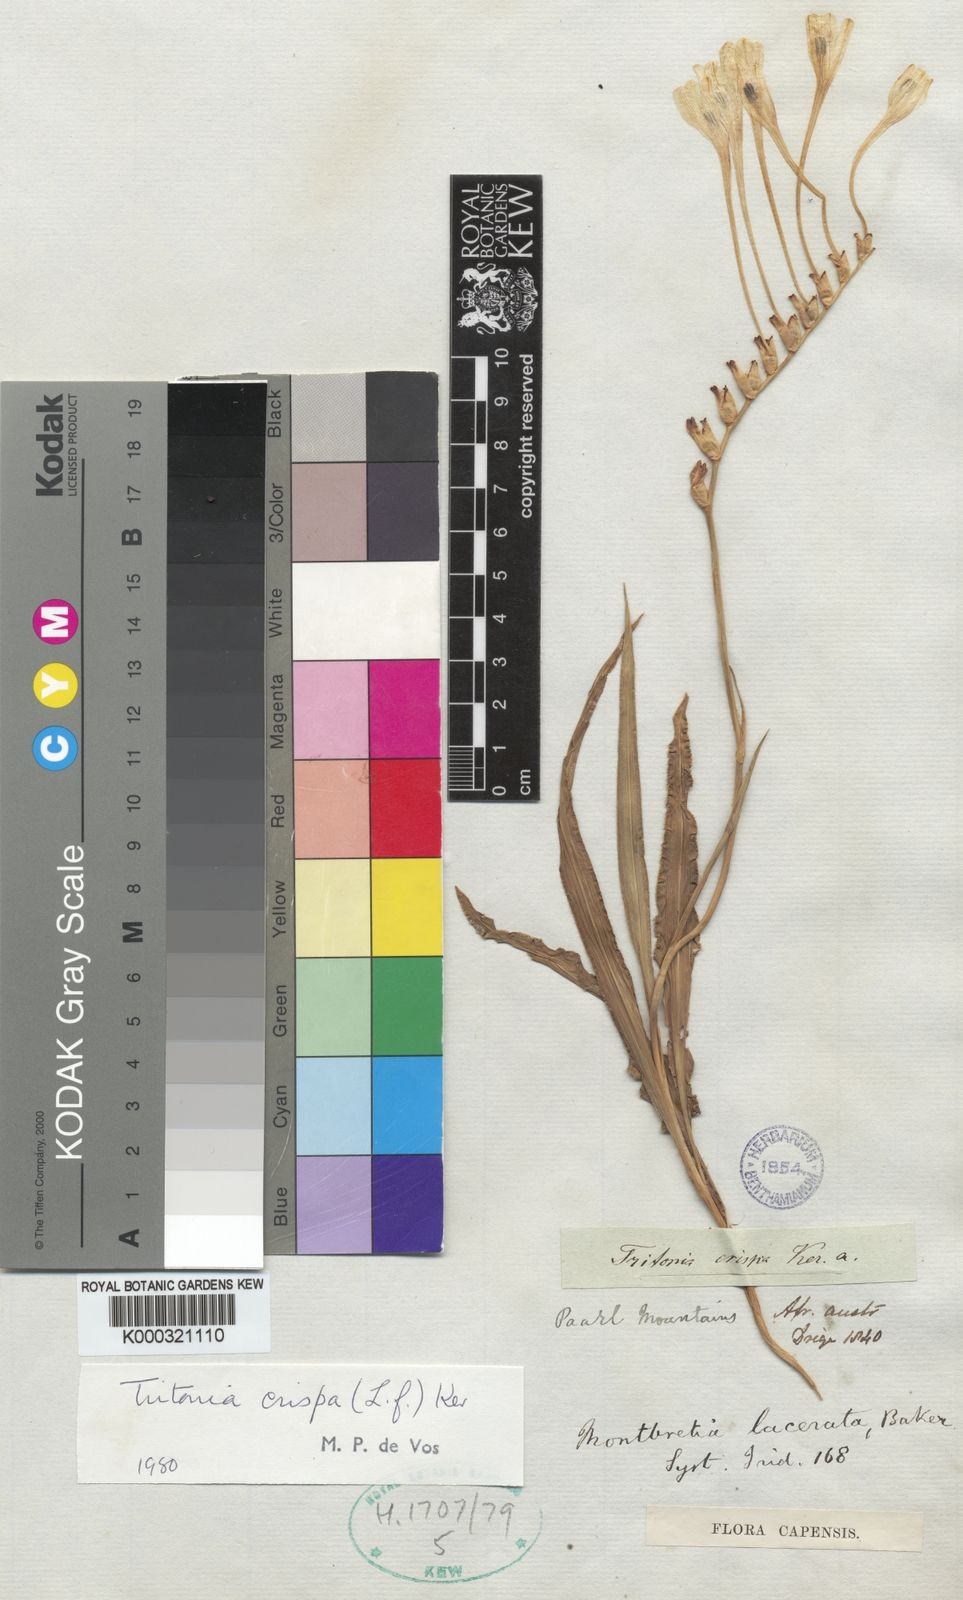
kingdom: Plantae
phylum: Tracheophyta
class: Liliopsida
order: Asparagales
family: Iridaceae
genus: Tritonia
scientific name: Tritonia undulata
